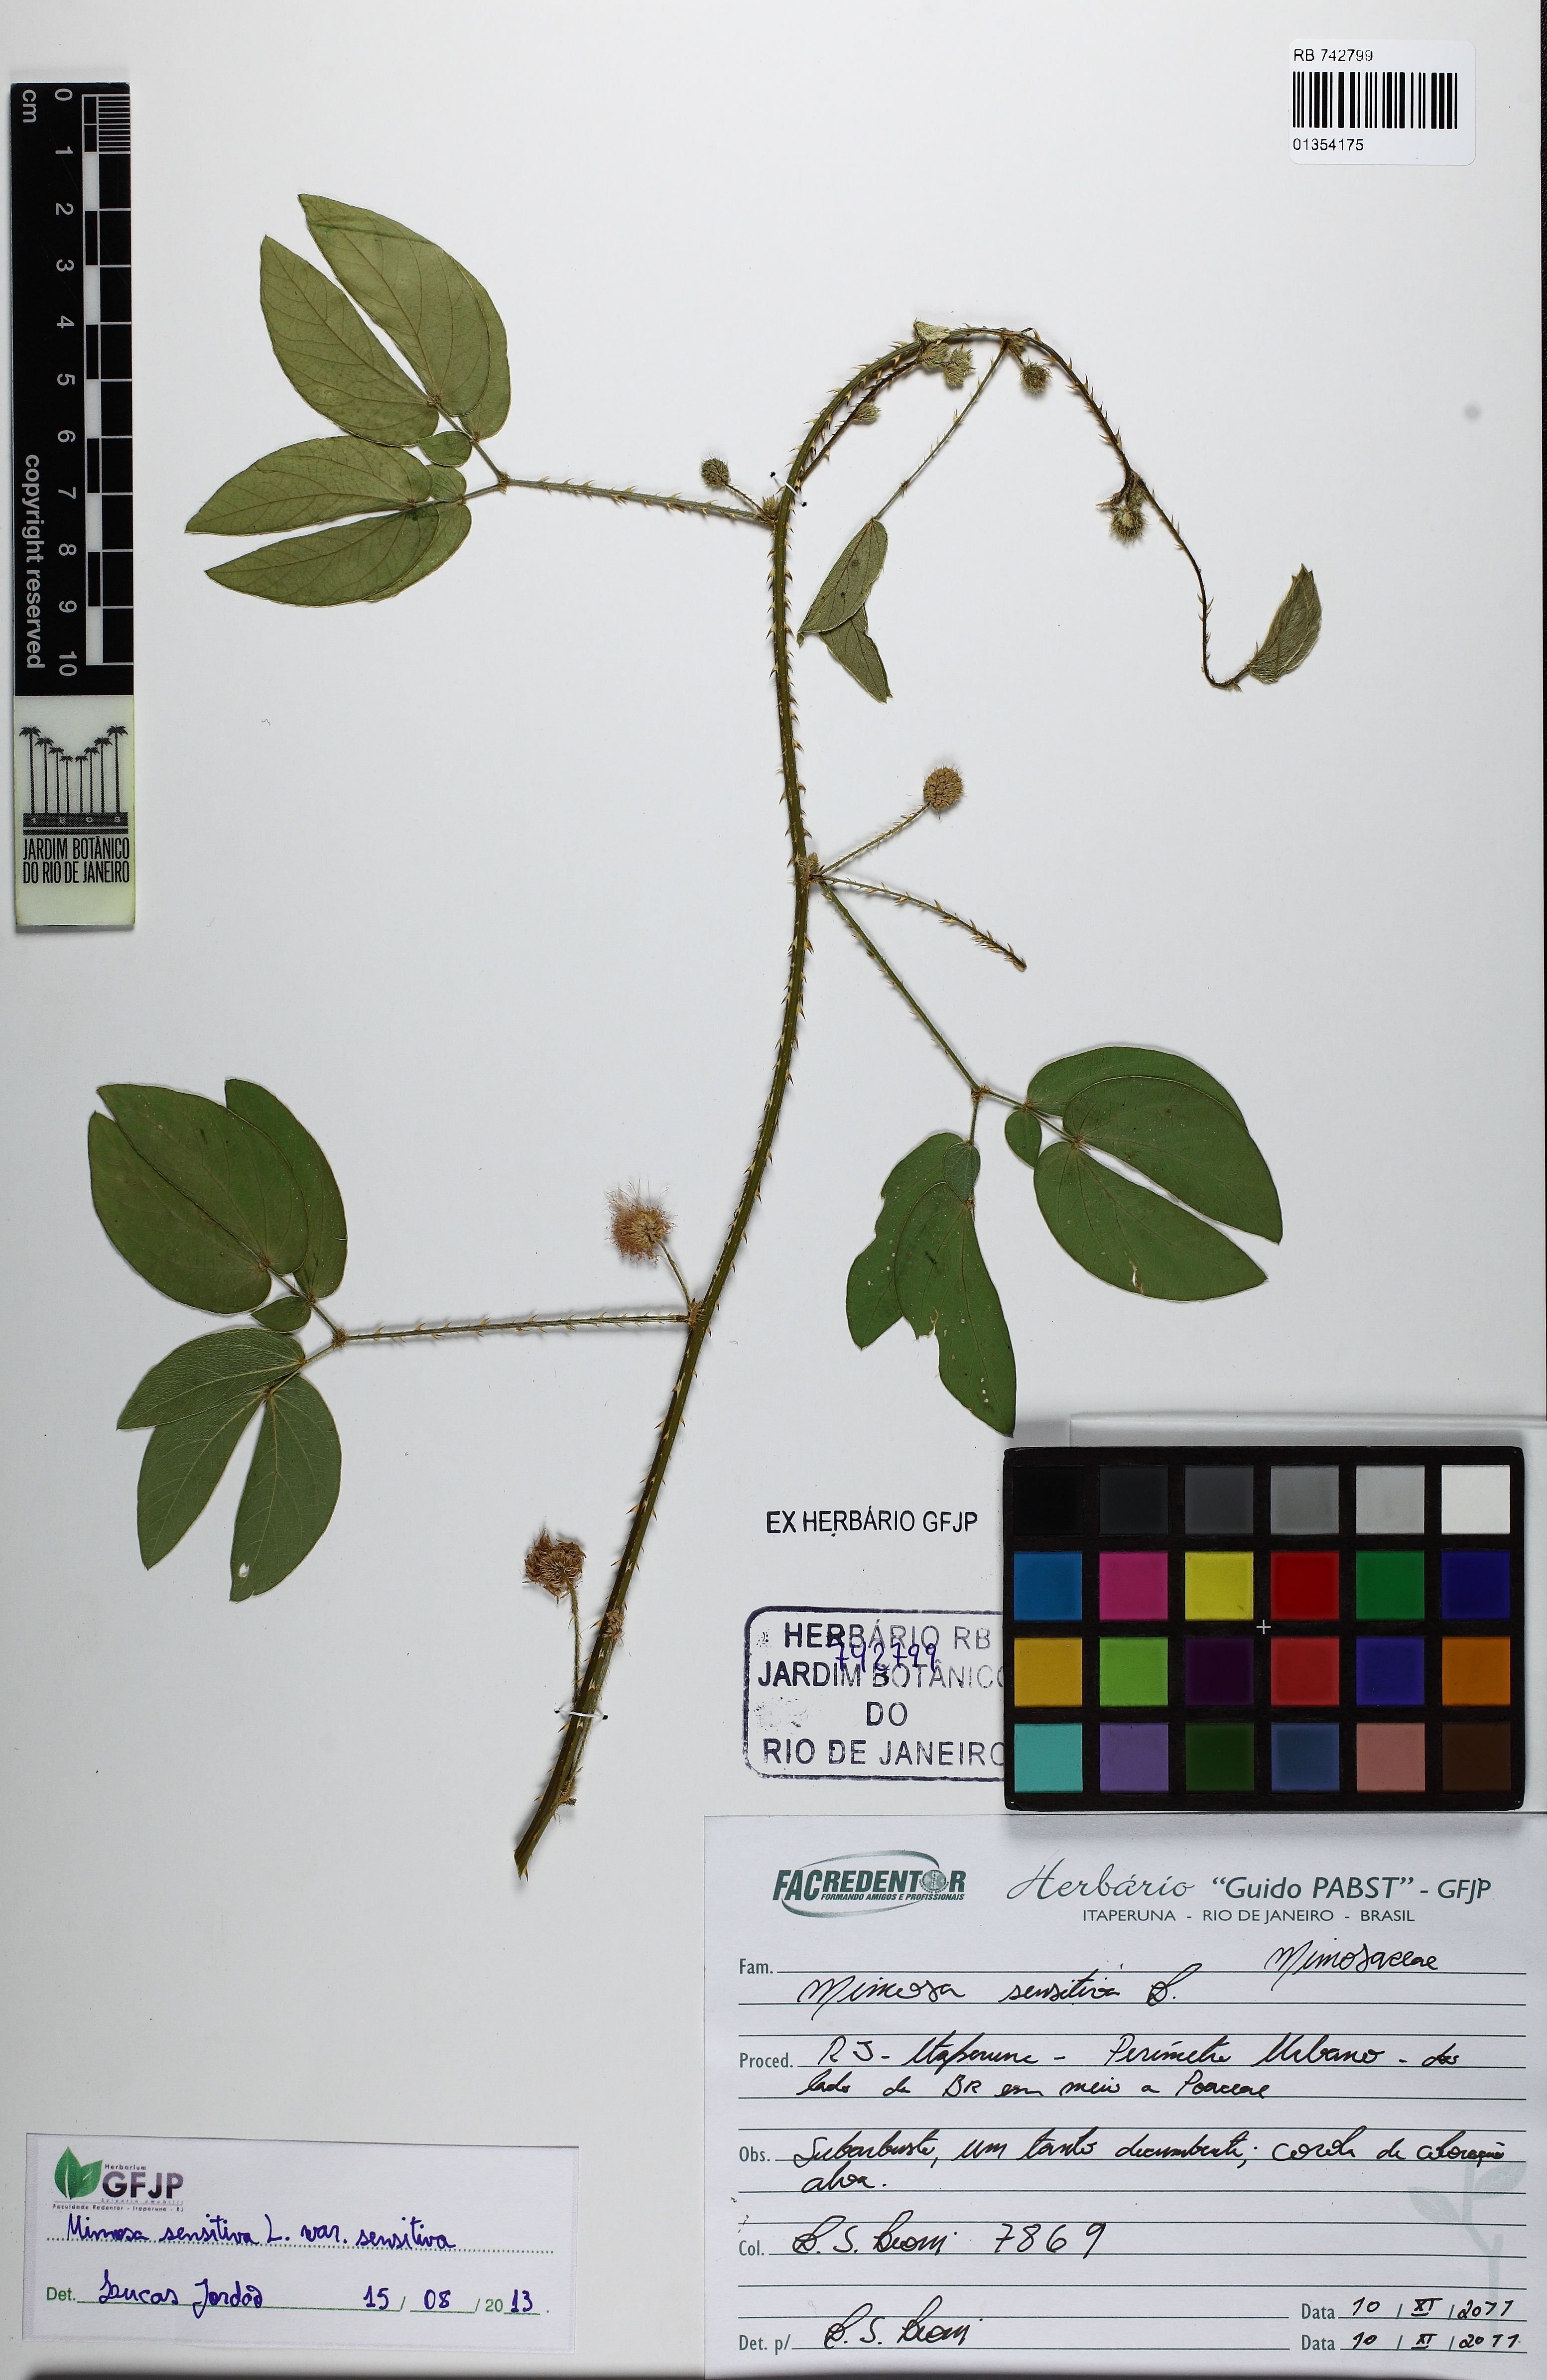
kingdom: Plantae
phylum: Tracheophyta
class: Magnoliopsida
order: Fabales
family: Fabaceae
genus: Mimosa
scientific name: Mimosa sensitiva
